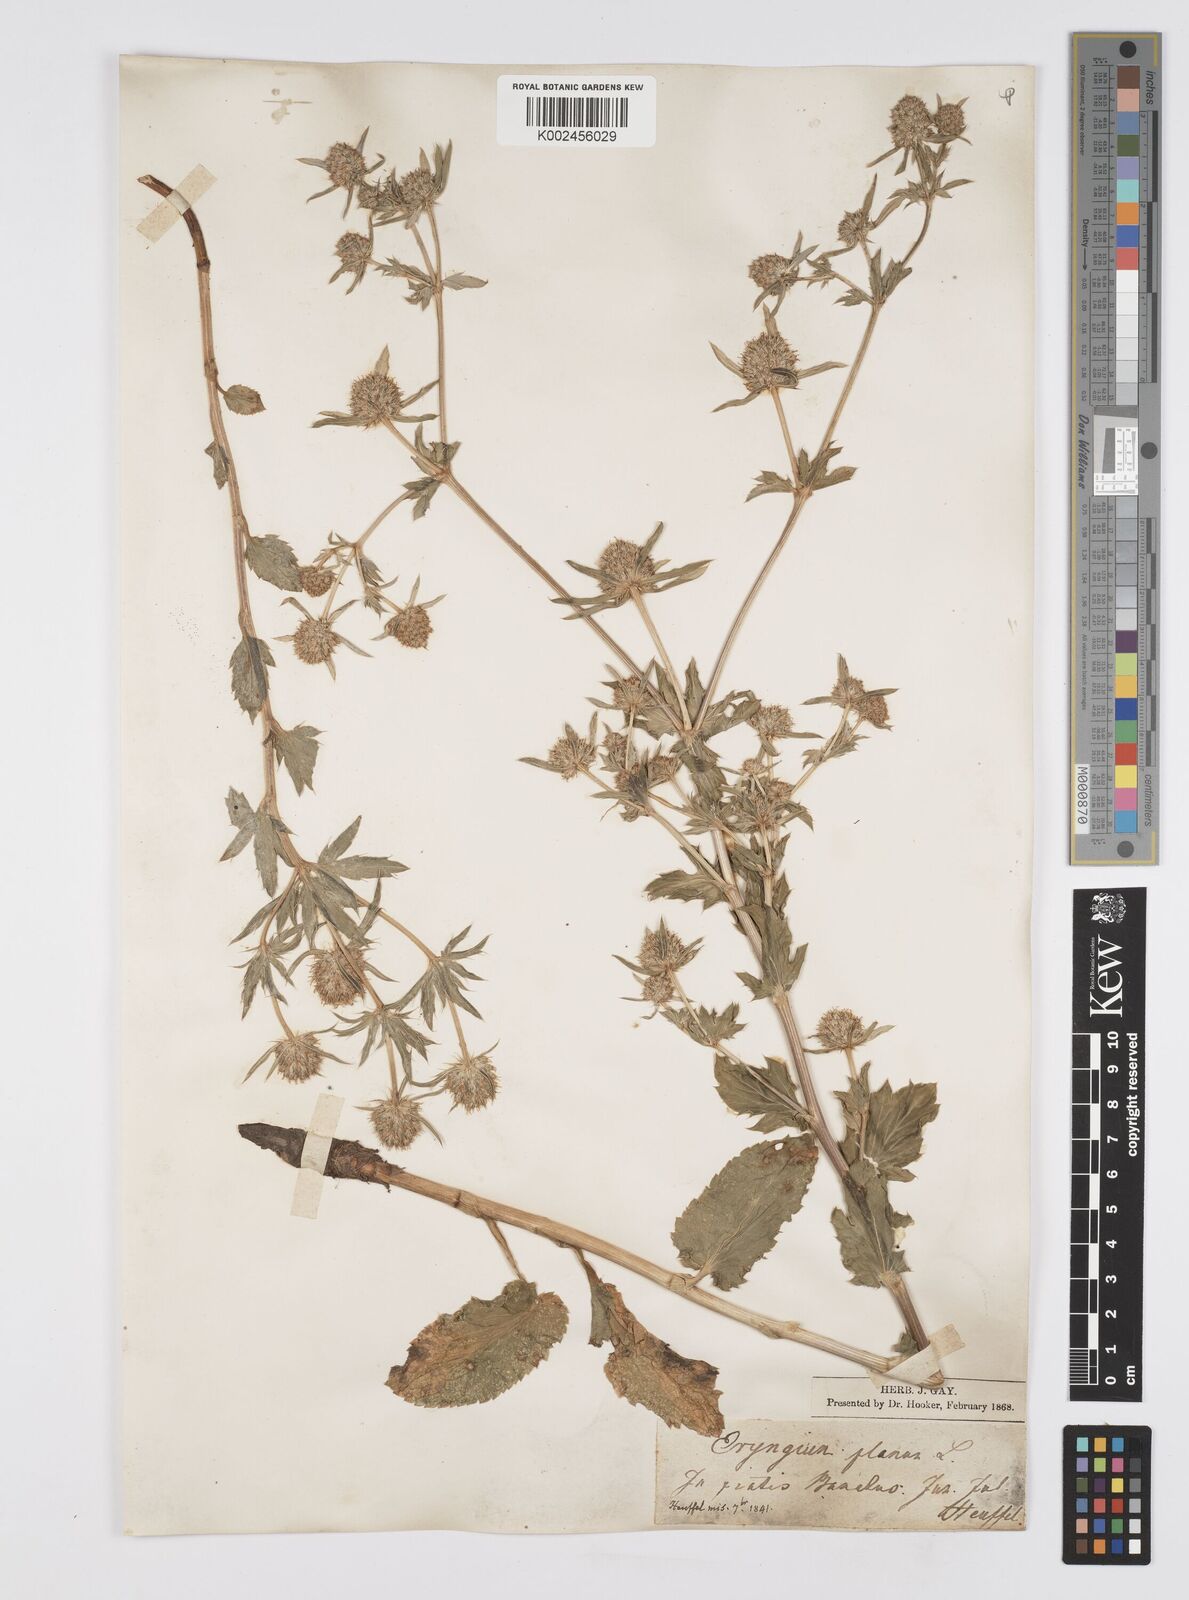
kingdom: Plantae
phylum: Tracheophyta
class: Magnoliopsida
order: Apiales
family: Apiaceae
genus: Eryngium
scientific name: Eryngium planum
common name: Blue eryngo
